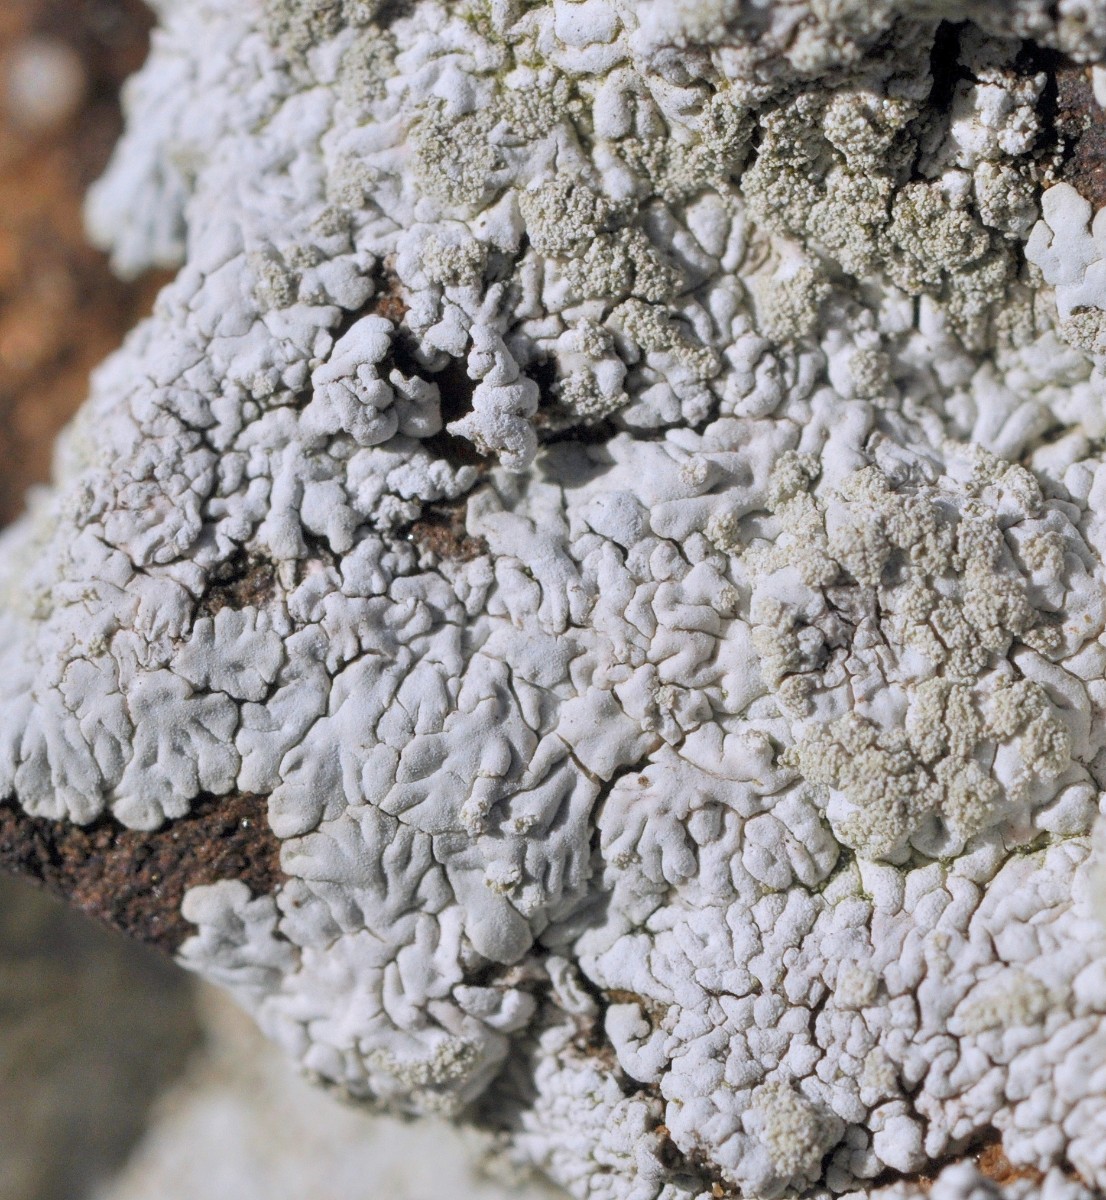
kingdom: Fungi
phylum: Ascomycota
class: Lecanoromycetes
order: Caliciales
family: Caliciaceae
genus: Diploicia
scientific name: Diploicia canescens
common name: grå støvrosetlav
